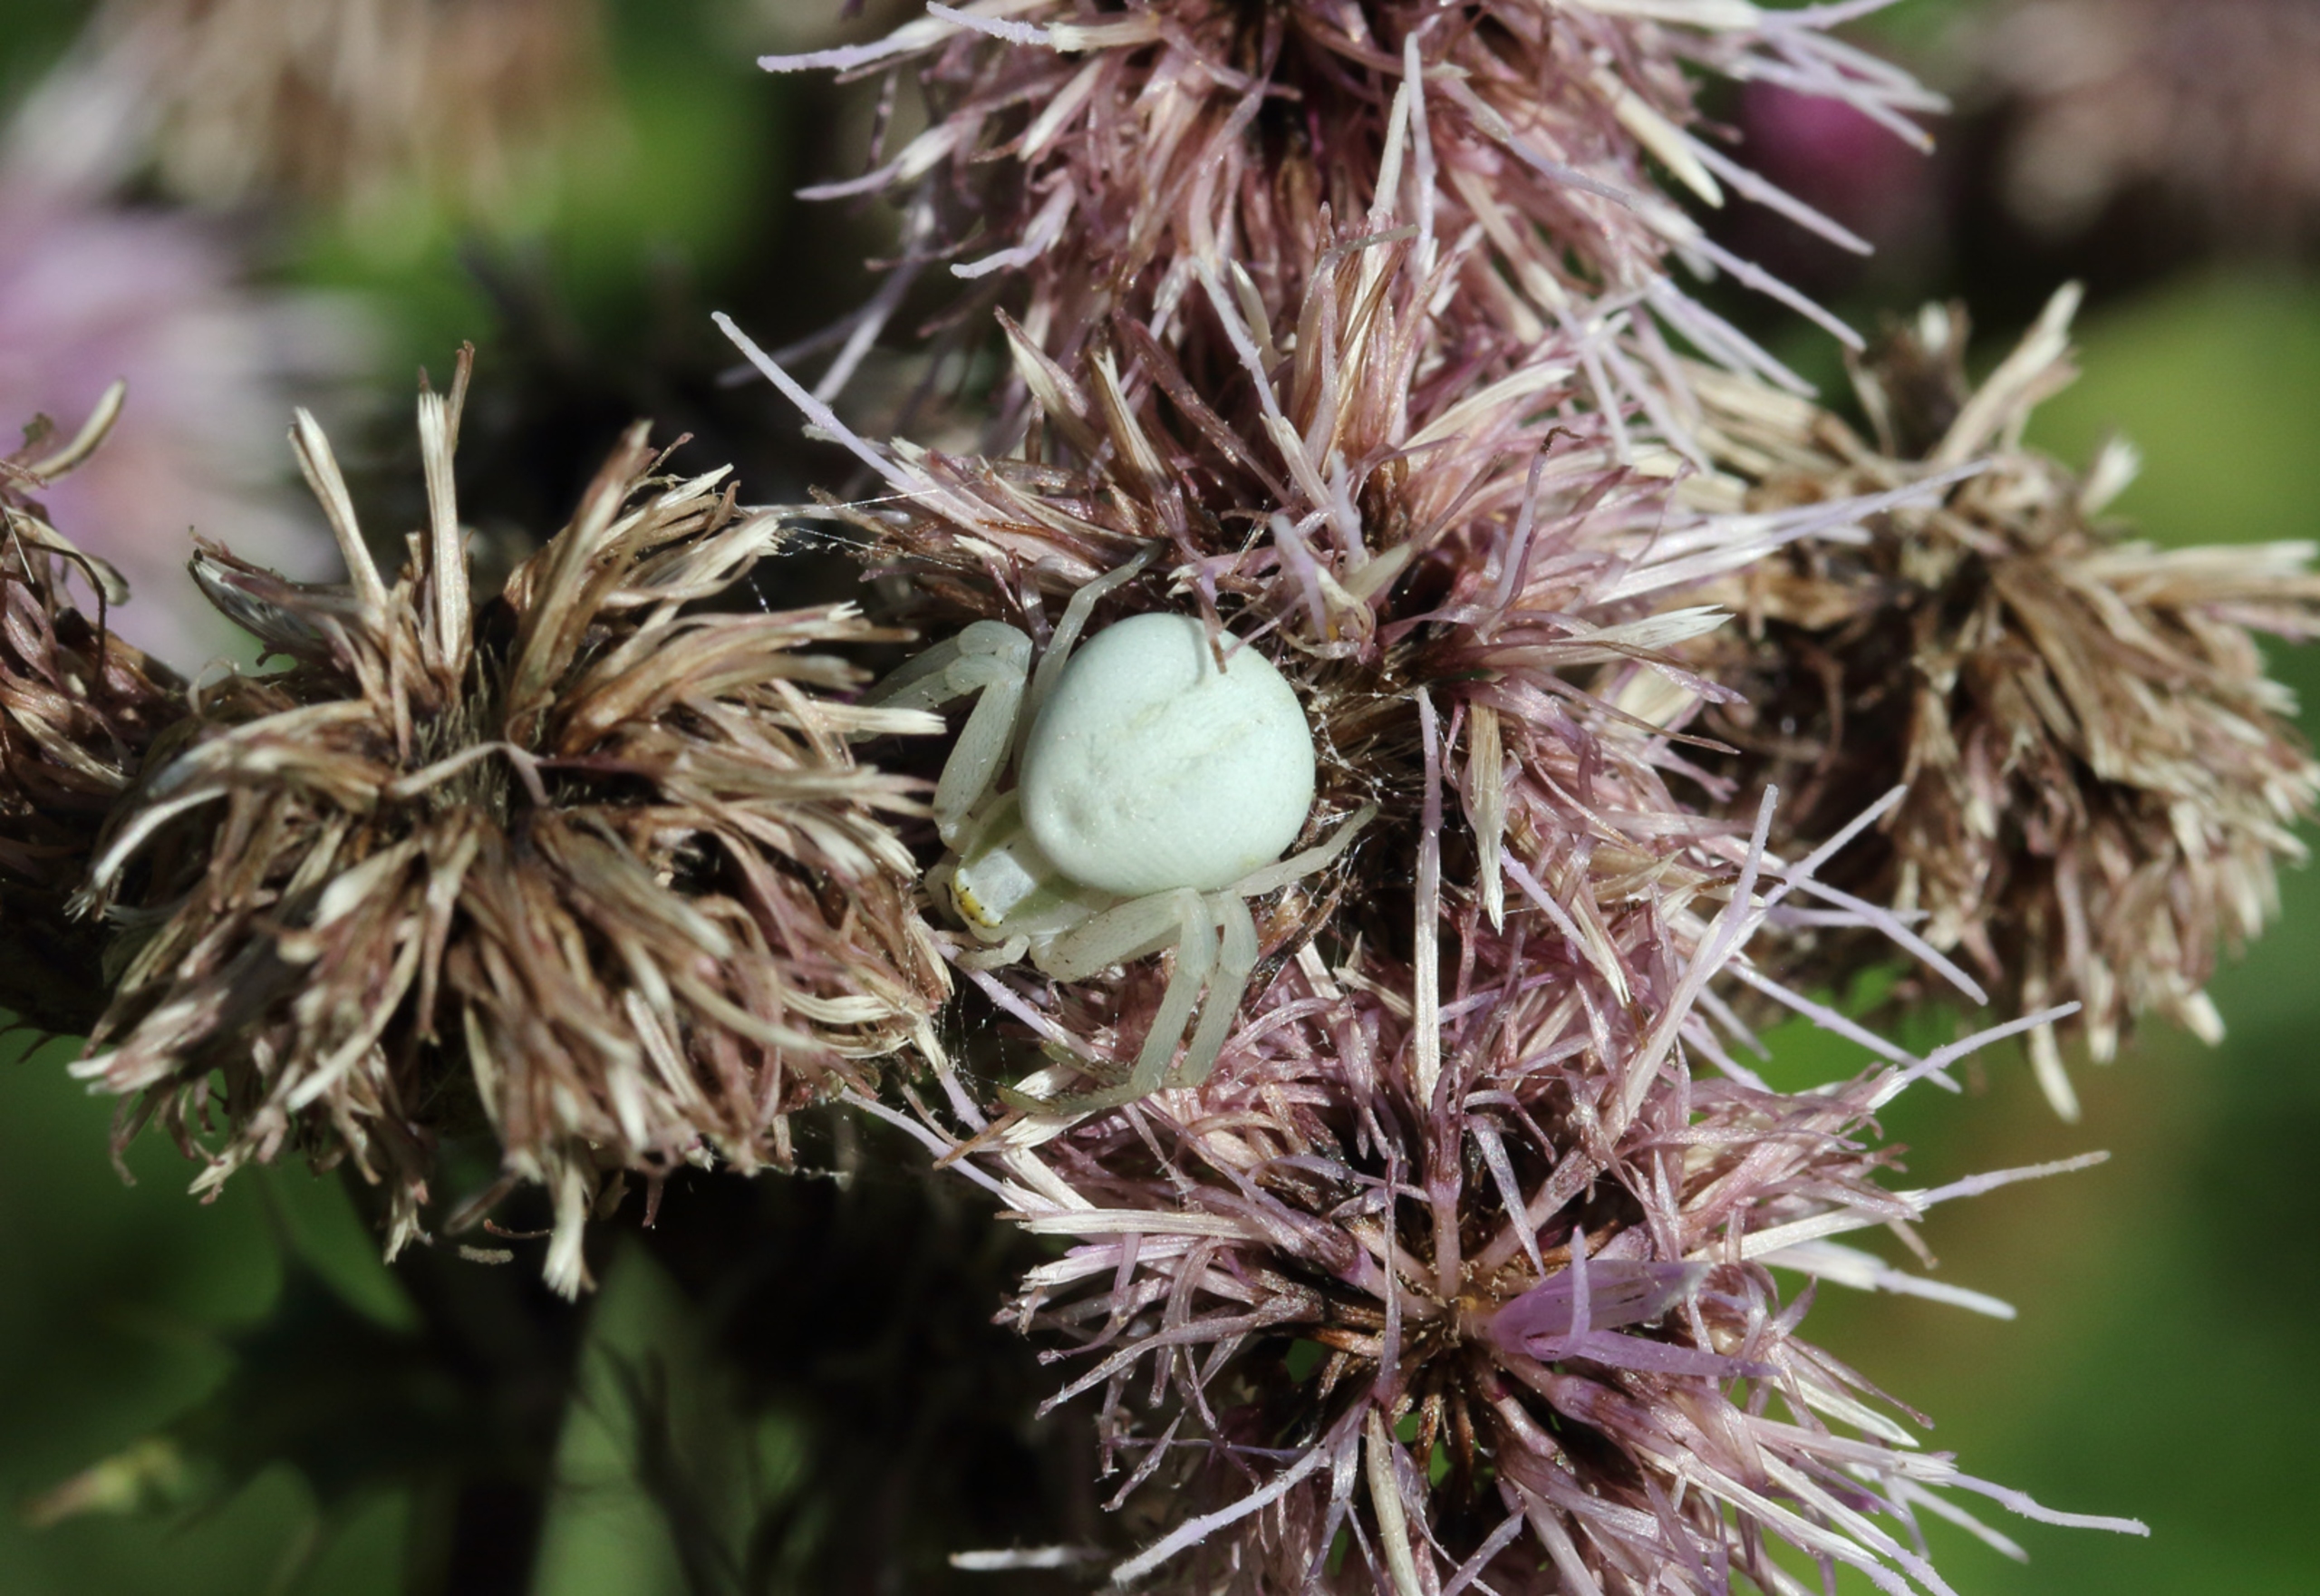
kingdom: Animalia
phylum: Arthropoda
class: Arachnida
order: Araneae
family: Thomisidae
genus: Misumena
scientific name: Misumena vatia
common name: Kamæleonedderkop
